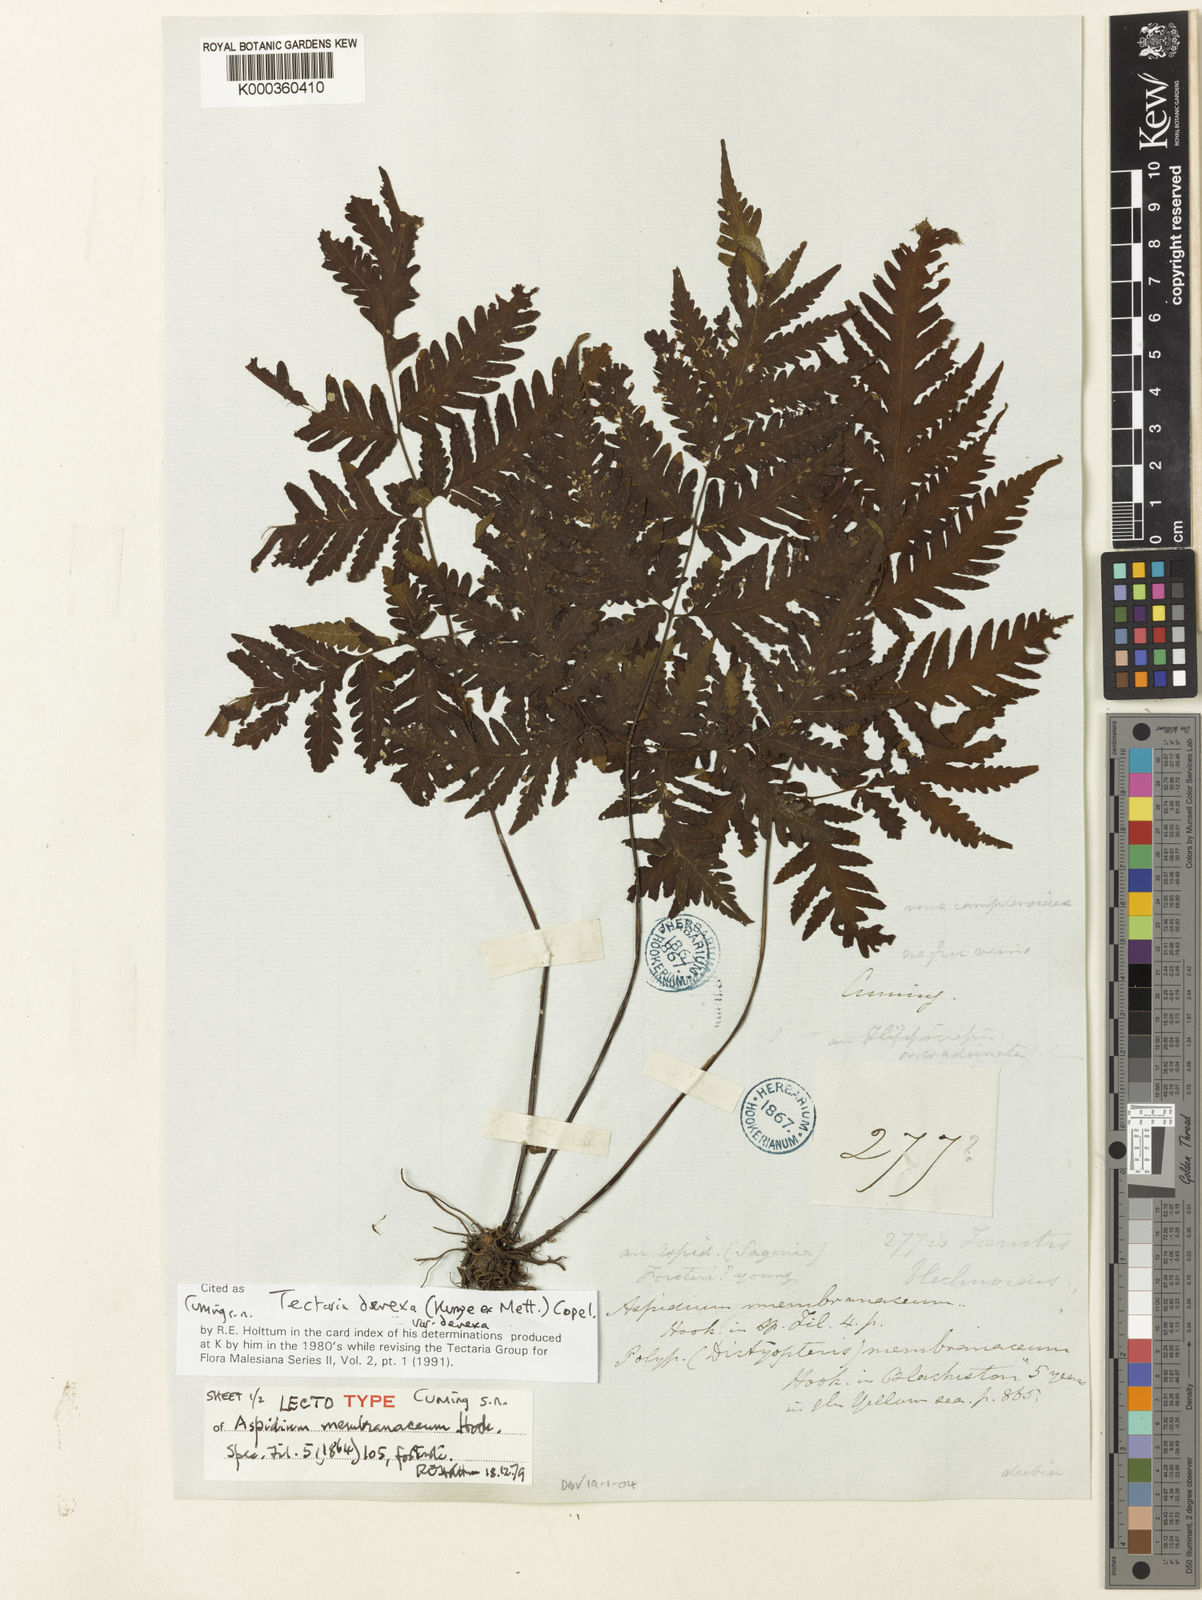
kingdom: Plantae
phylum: Tracheophyta
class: Polypodiopsida
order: Polypodiales
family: Tectariaceae
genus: Tectaria
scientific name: Tectaria membranacea
